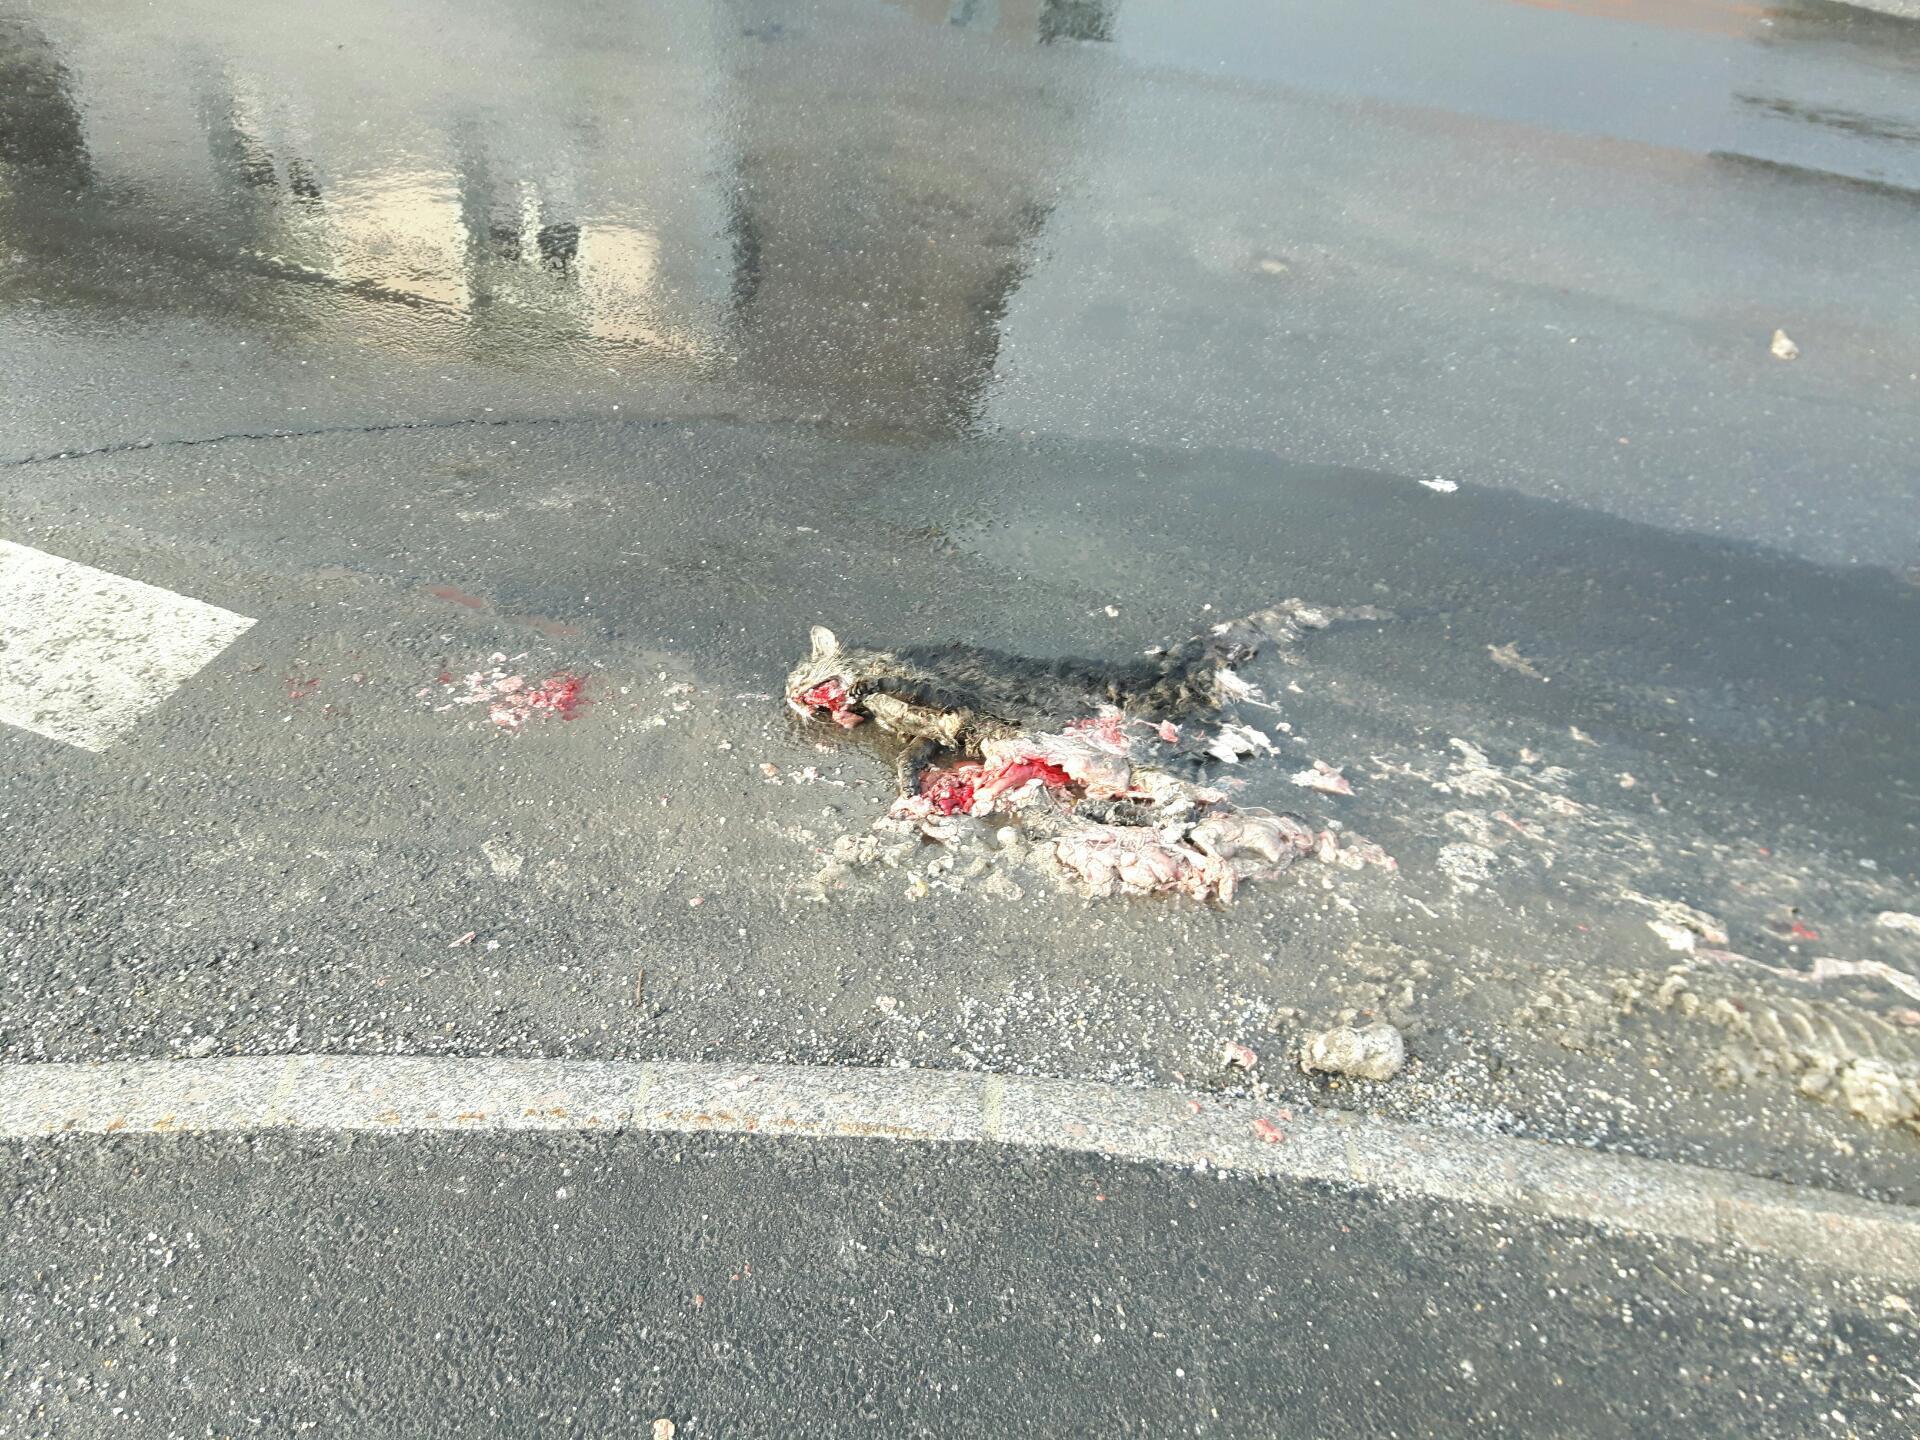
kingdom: Animalia
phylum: Chordata
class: Mammalia
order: Carnivora
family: Felidae
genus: Felis
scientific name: Felis catus
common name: Domestic cat
